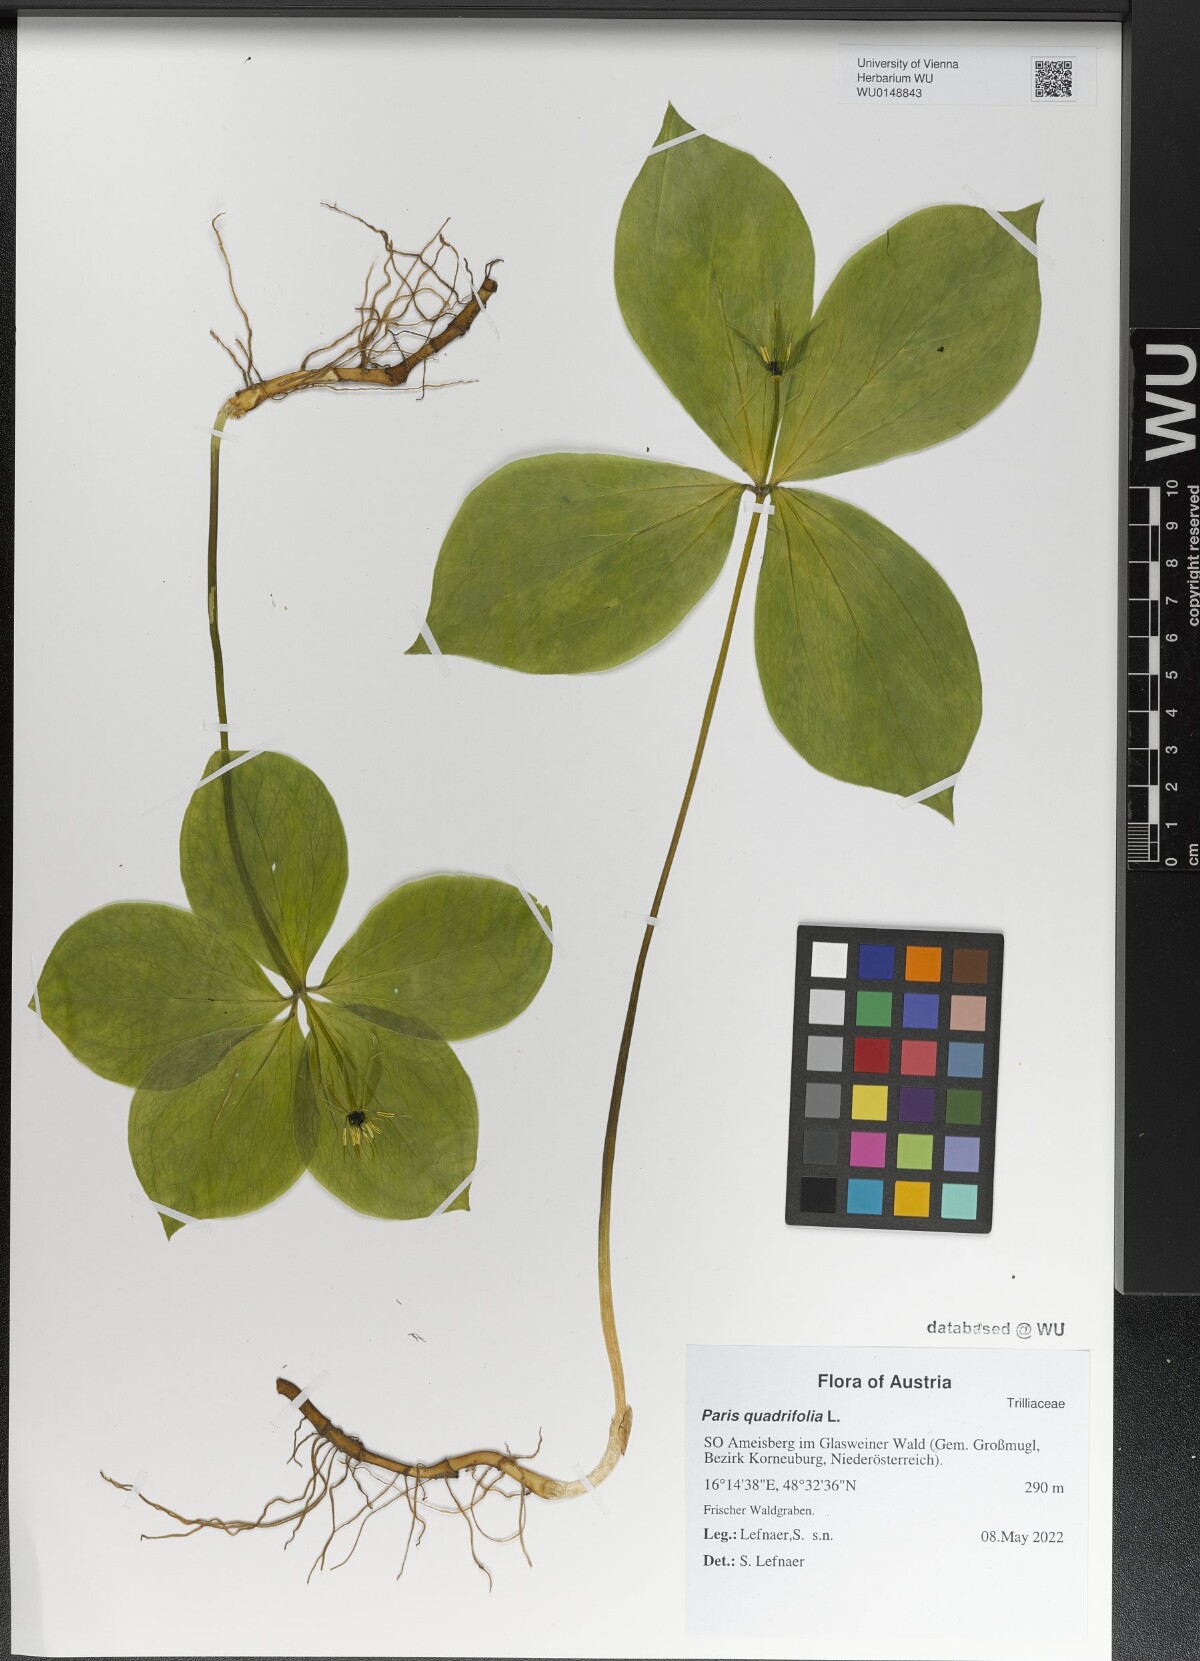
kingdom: Plantae
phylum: Tracheophyta
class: Liliopsida
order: Liliales
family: Melanthiaceae
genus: Paris
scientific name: Paris quadrifolia
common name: Herb-paris
